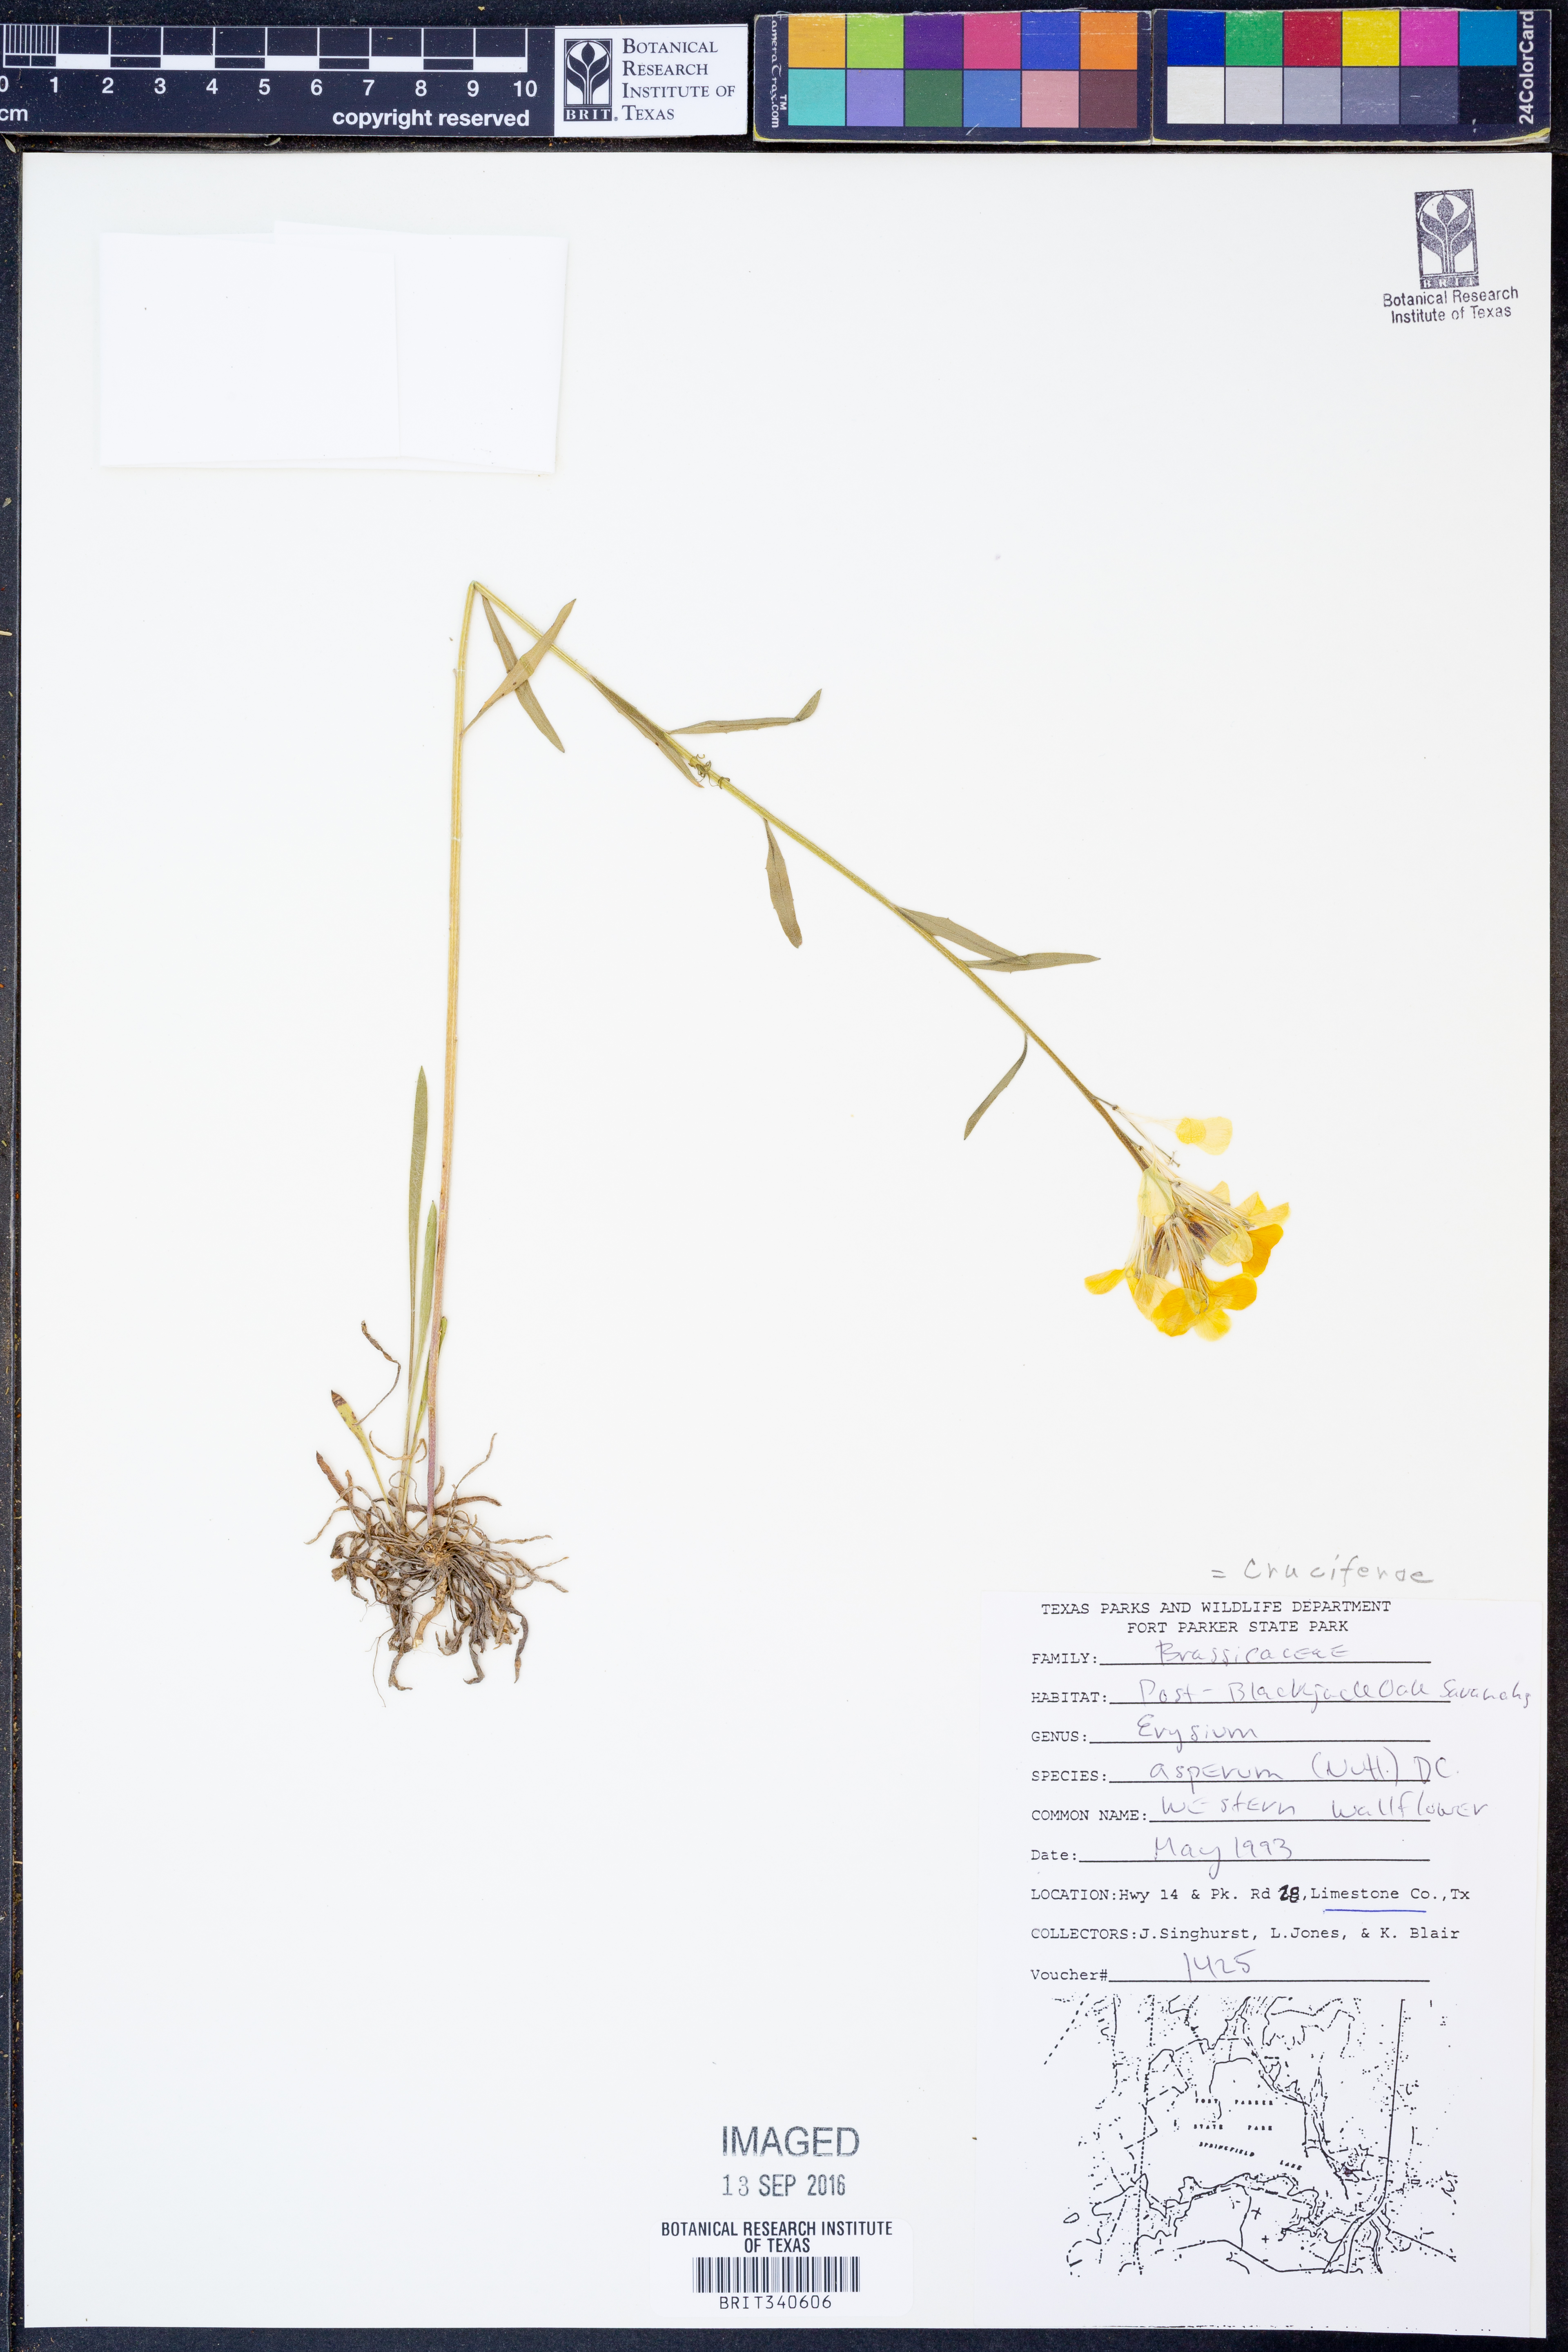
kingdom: Plantae
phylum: Tracheophyta
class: Magnoliopsida
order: Brassicales
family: Brassicaceae
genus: Erysimum
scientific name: Erysimum asperum
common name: Western wallflower
